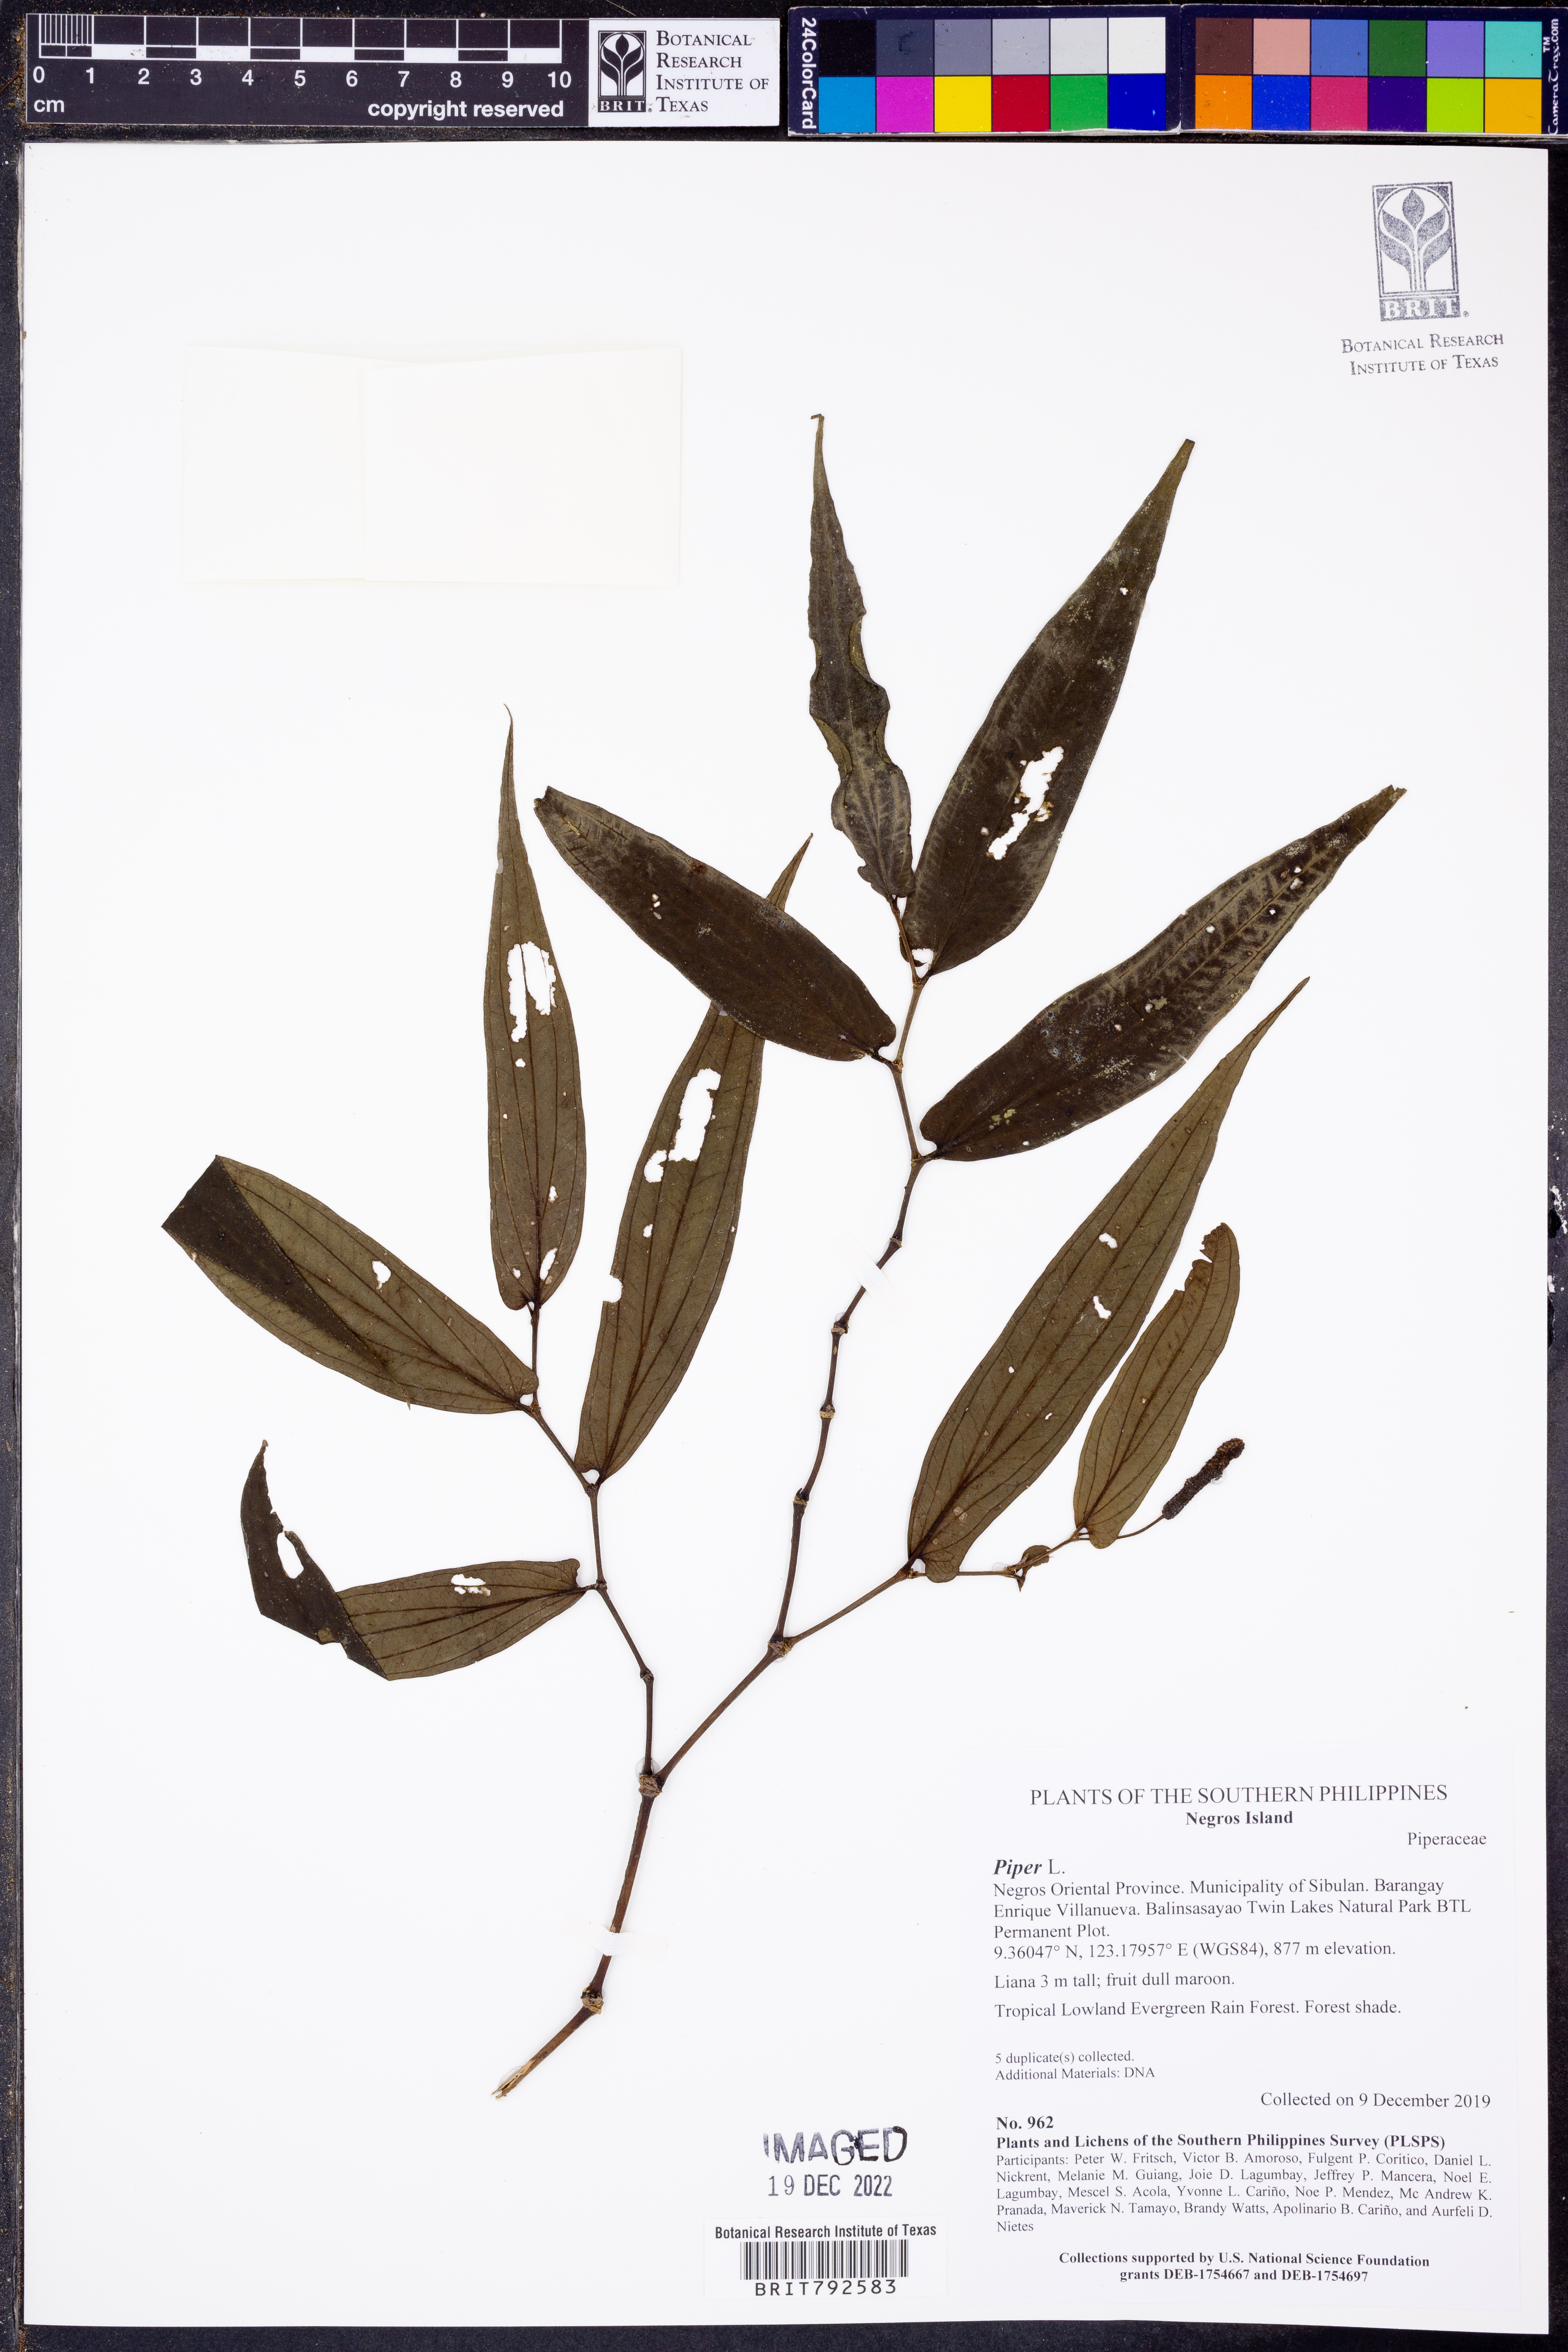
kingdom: Plantae
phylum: Tracheophyta
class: Magnoliopsida
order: Piperales
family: Piperaceae
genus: Piper
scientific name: Piper
